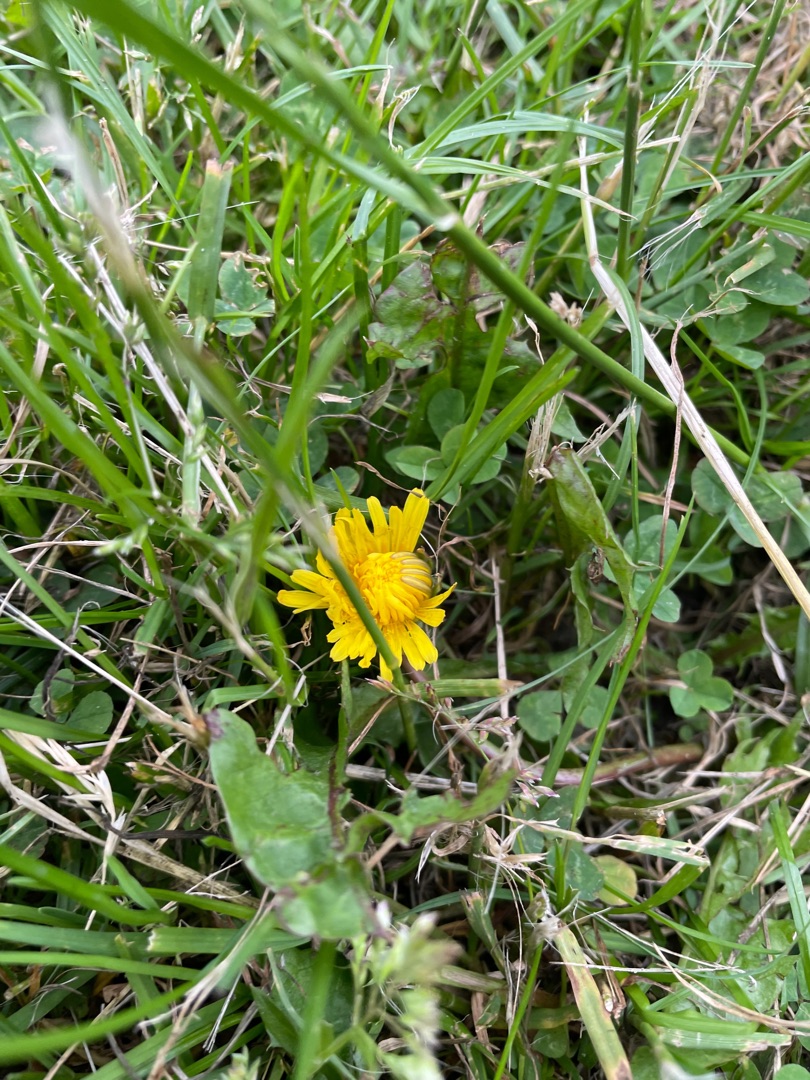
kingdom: Plantae
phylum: Tracheophyta
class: Magnoliopsida
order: Asterales
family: Asteraceae
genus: Taraxacum
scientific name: Taraxacum
